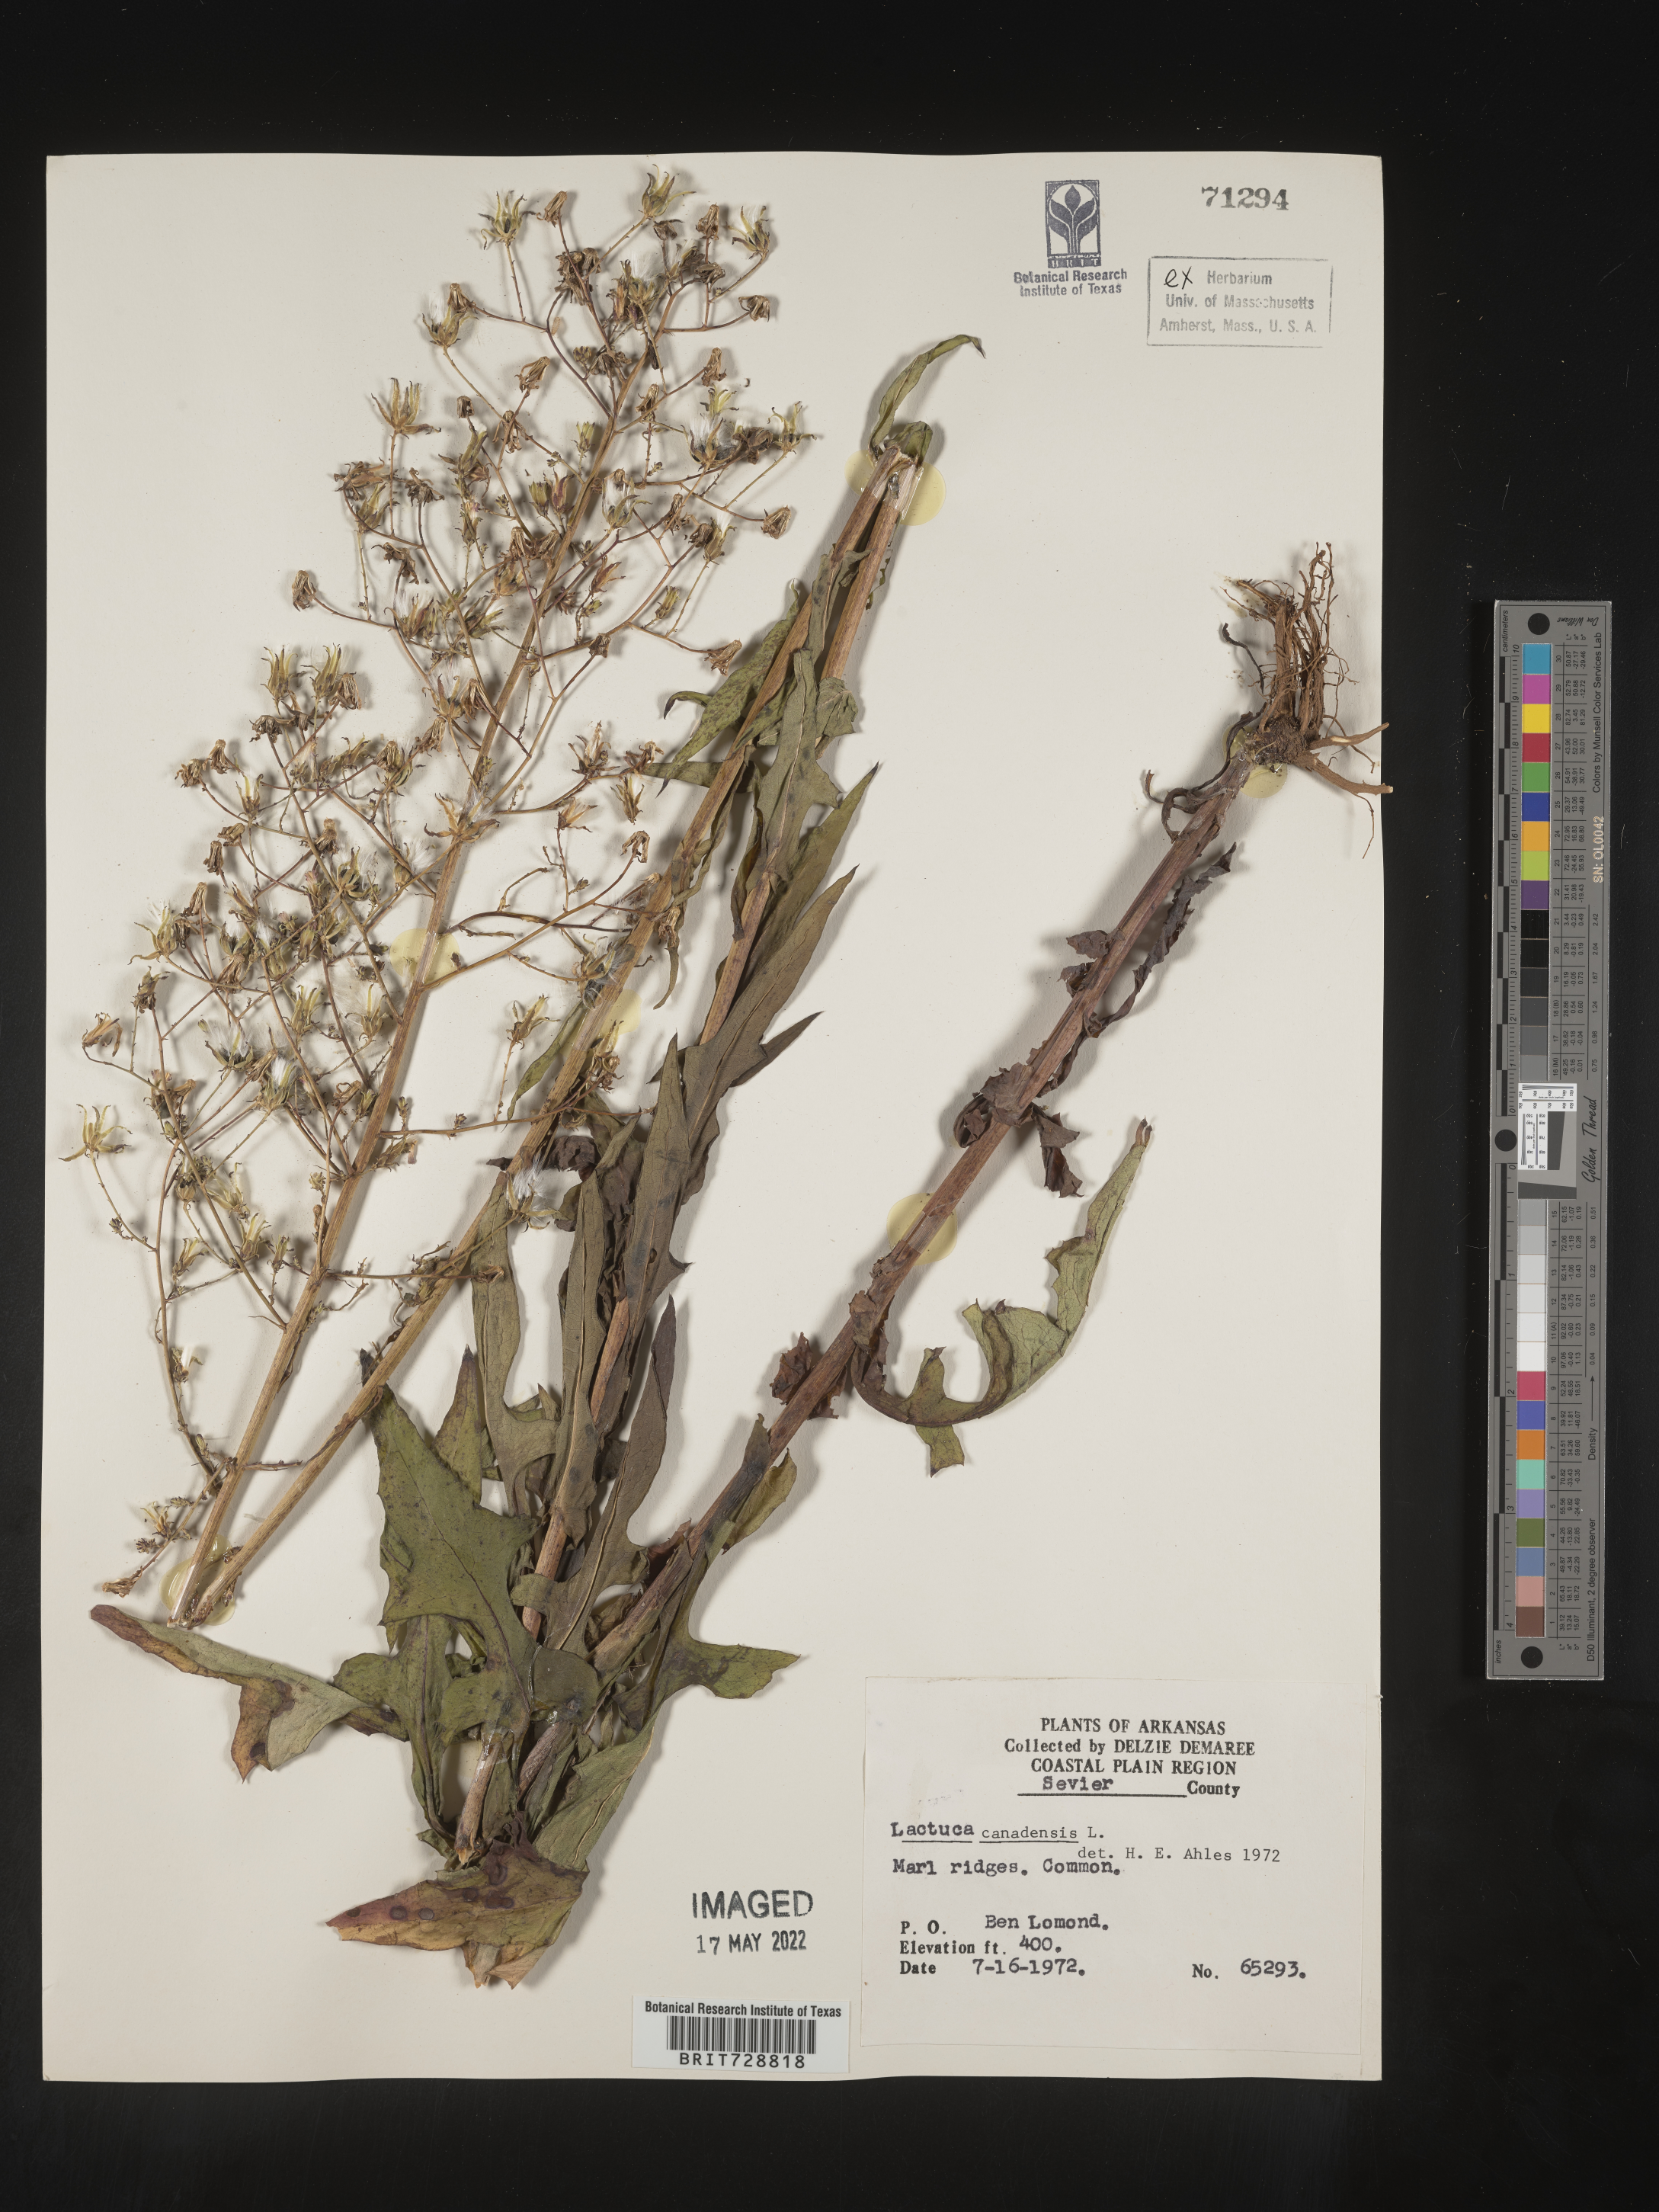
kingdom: Plantae
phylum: Tracheophyta
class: Magnoliopsida
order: Asterales
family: Asteraceae
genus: Lactuca
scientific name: Lactuca canadensis
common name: Canada lettuce
